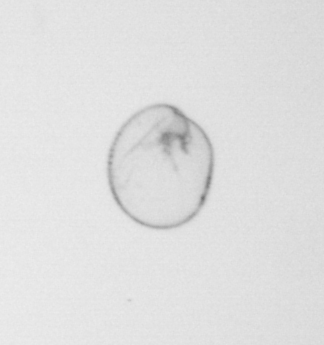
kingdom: Chromista
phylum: Myzozoa
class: Dinophyceae
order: Noctilucales
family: Noctilucaceae
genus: Noctiluca
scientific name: Noctiluca scintillans
